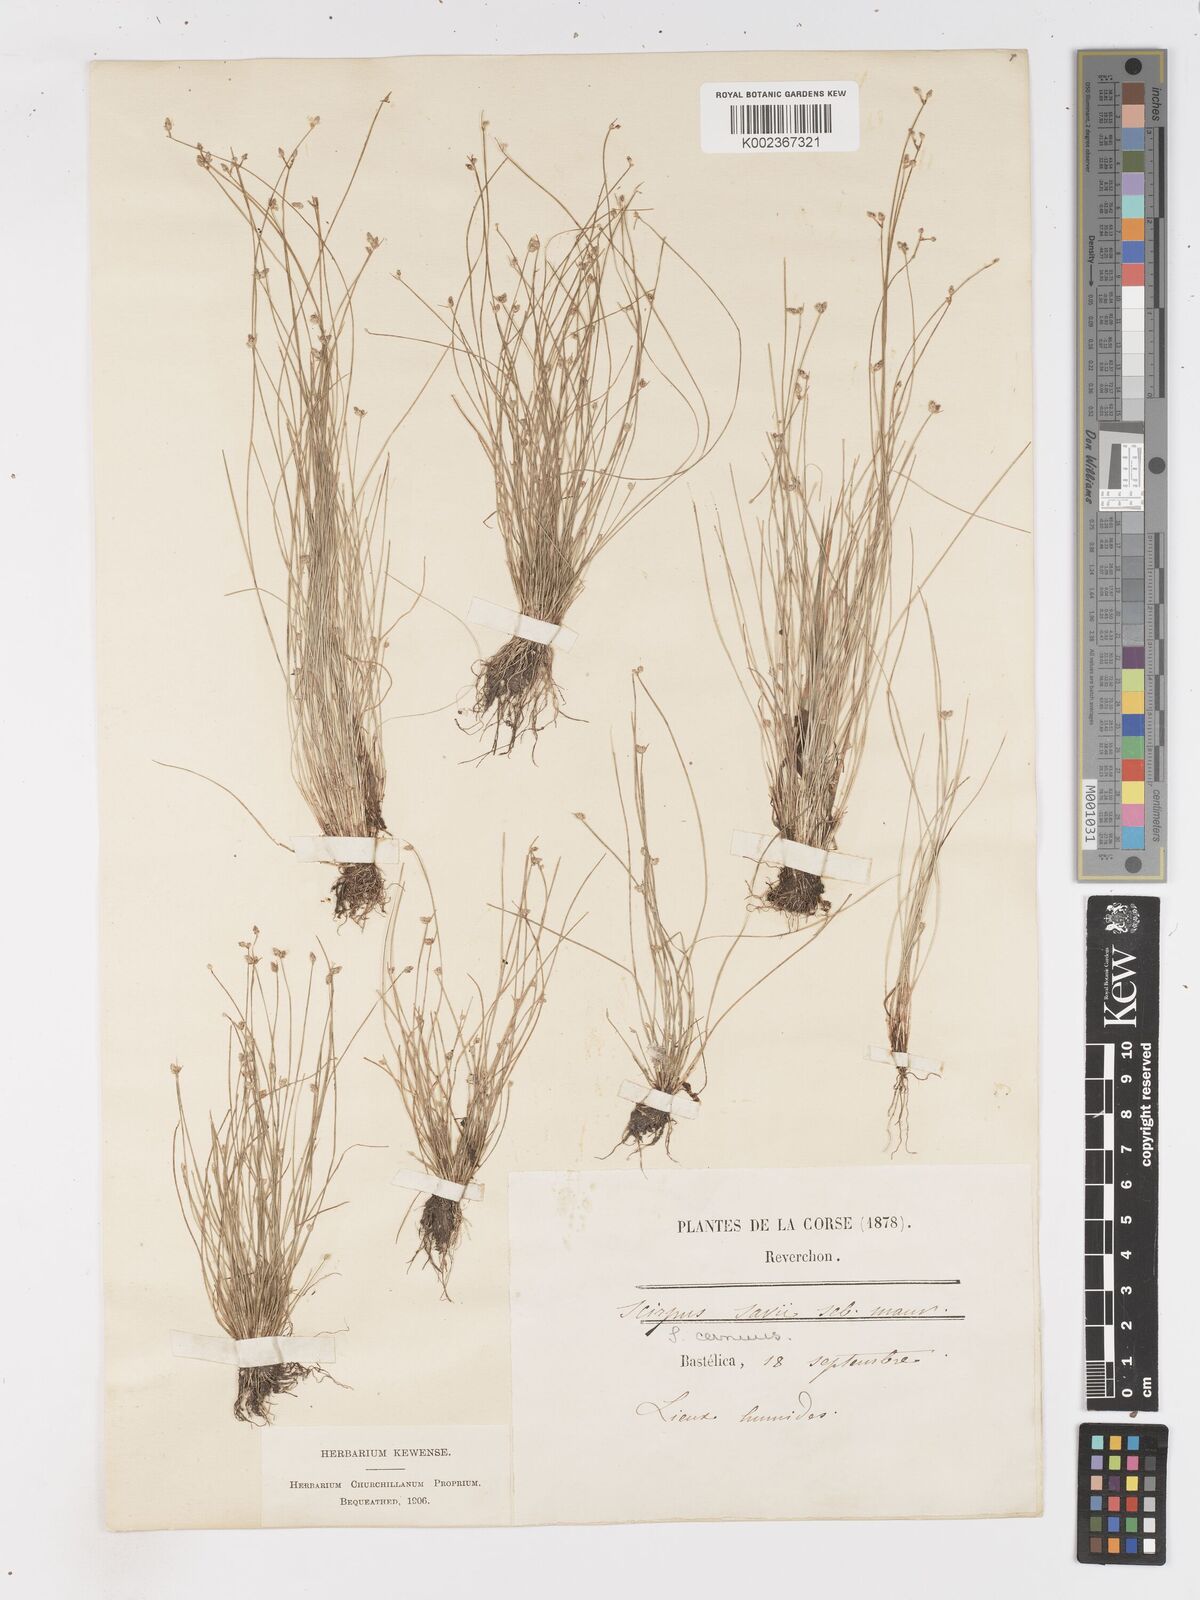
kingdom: Plantae
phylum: Tracheophyta
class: Liliopsida
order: Poales
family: Cyperaceae
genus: Isolepis
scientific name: Isolepis cernua
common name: Slender club-rush
